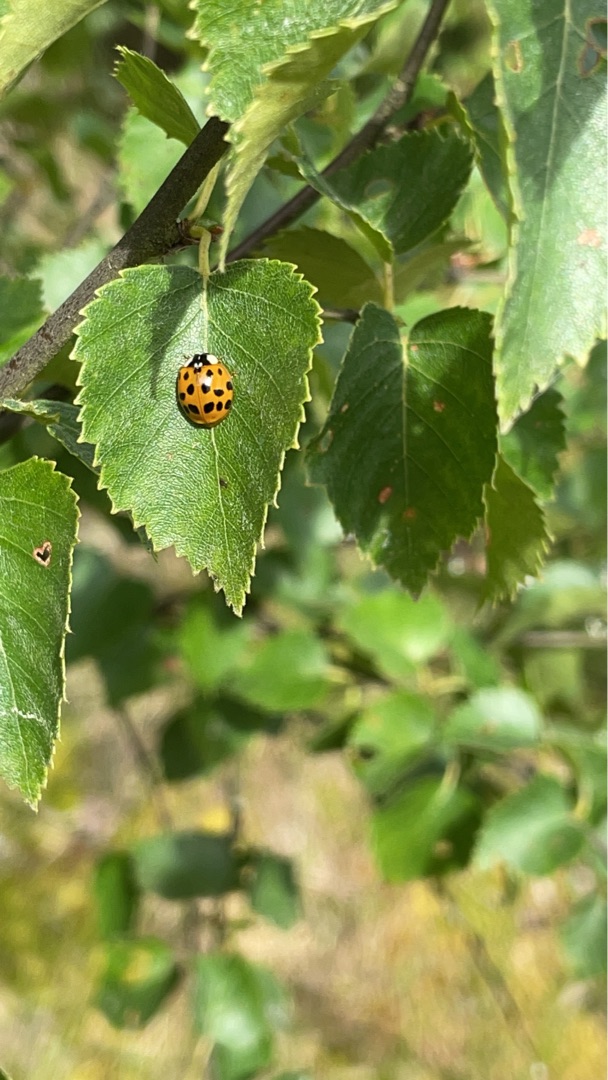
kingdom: Animalia
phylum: Arthropoda
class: Insecta
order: Coleoptera
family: Coccinellidae
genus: Harmonia
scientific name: Harmonia axyridis
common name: Harlekinmariehøne
